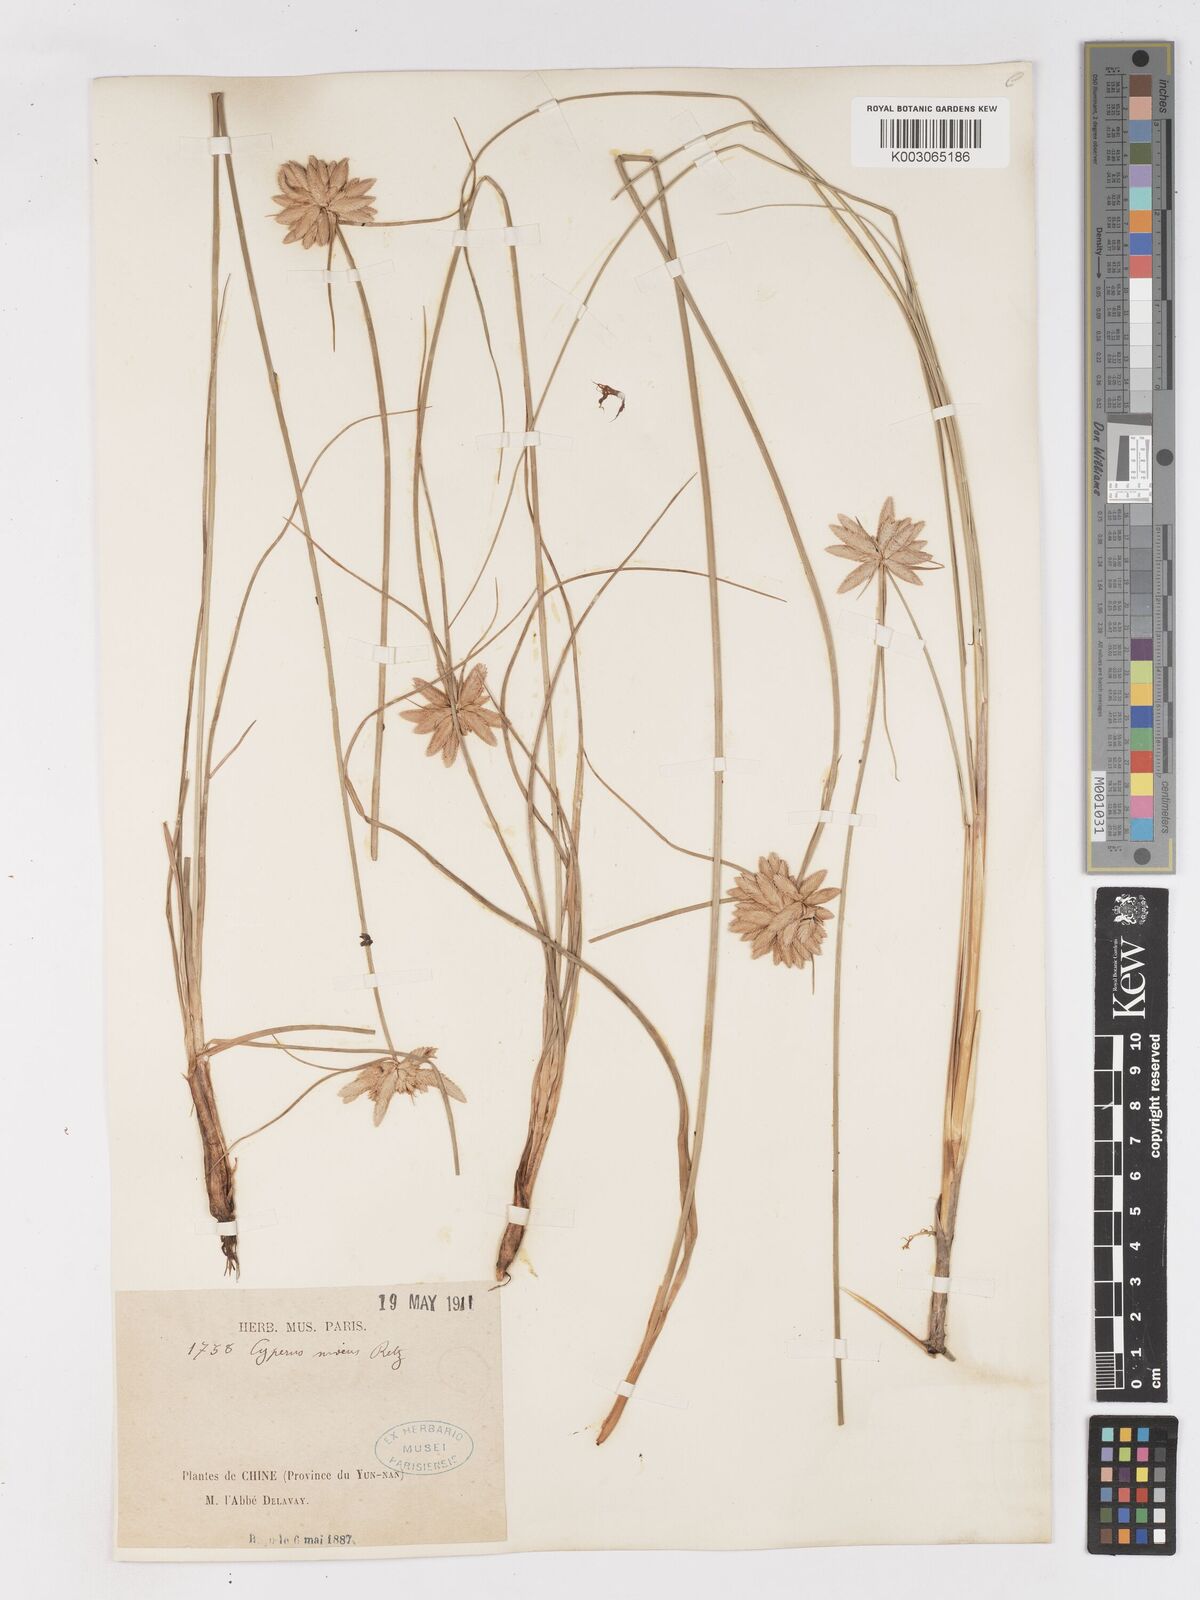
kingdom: Plantae
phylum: Tracheophyta
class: Liliopsida
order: Poales
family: Cyperaceae
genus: Cyperus
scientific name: Cyperus niveus
